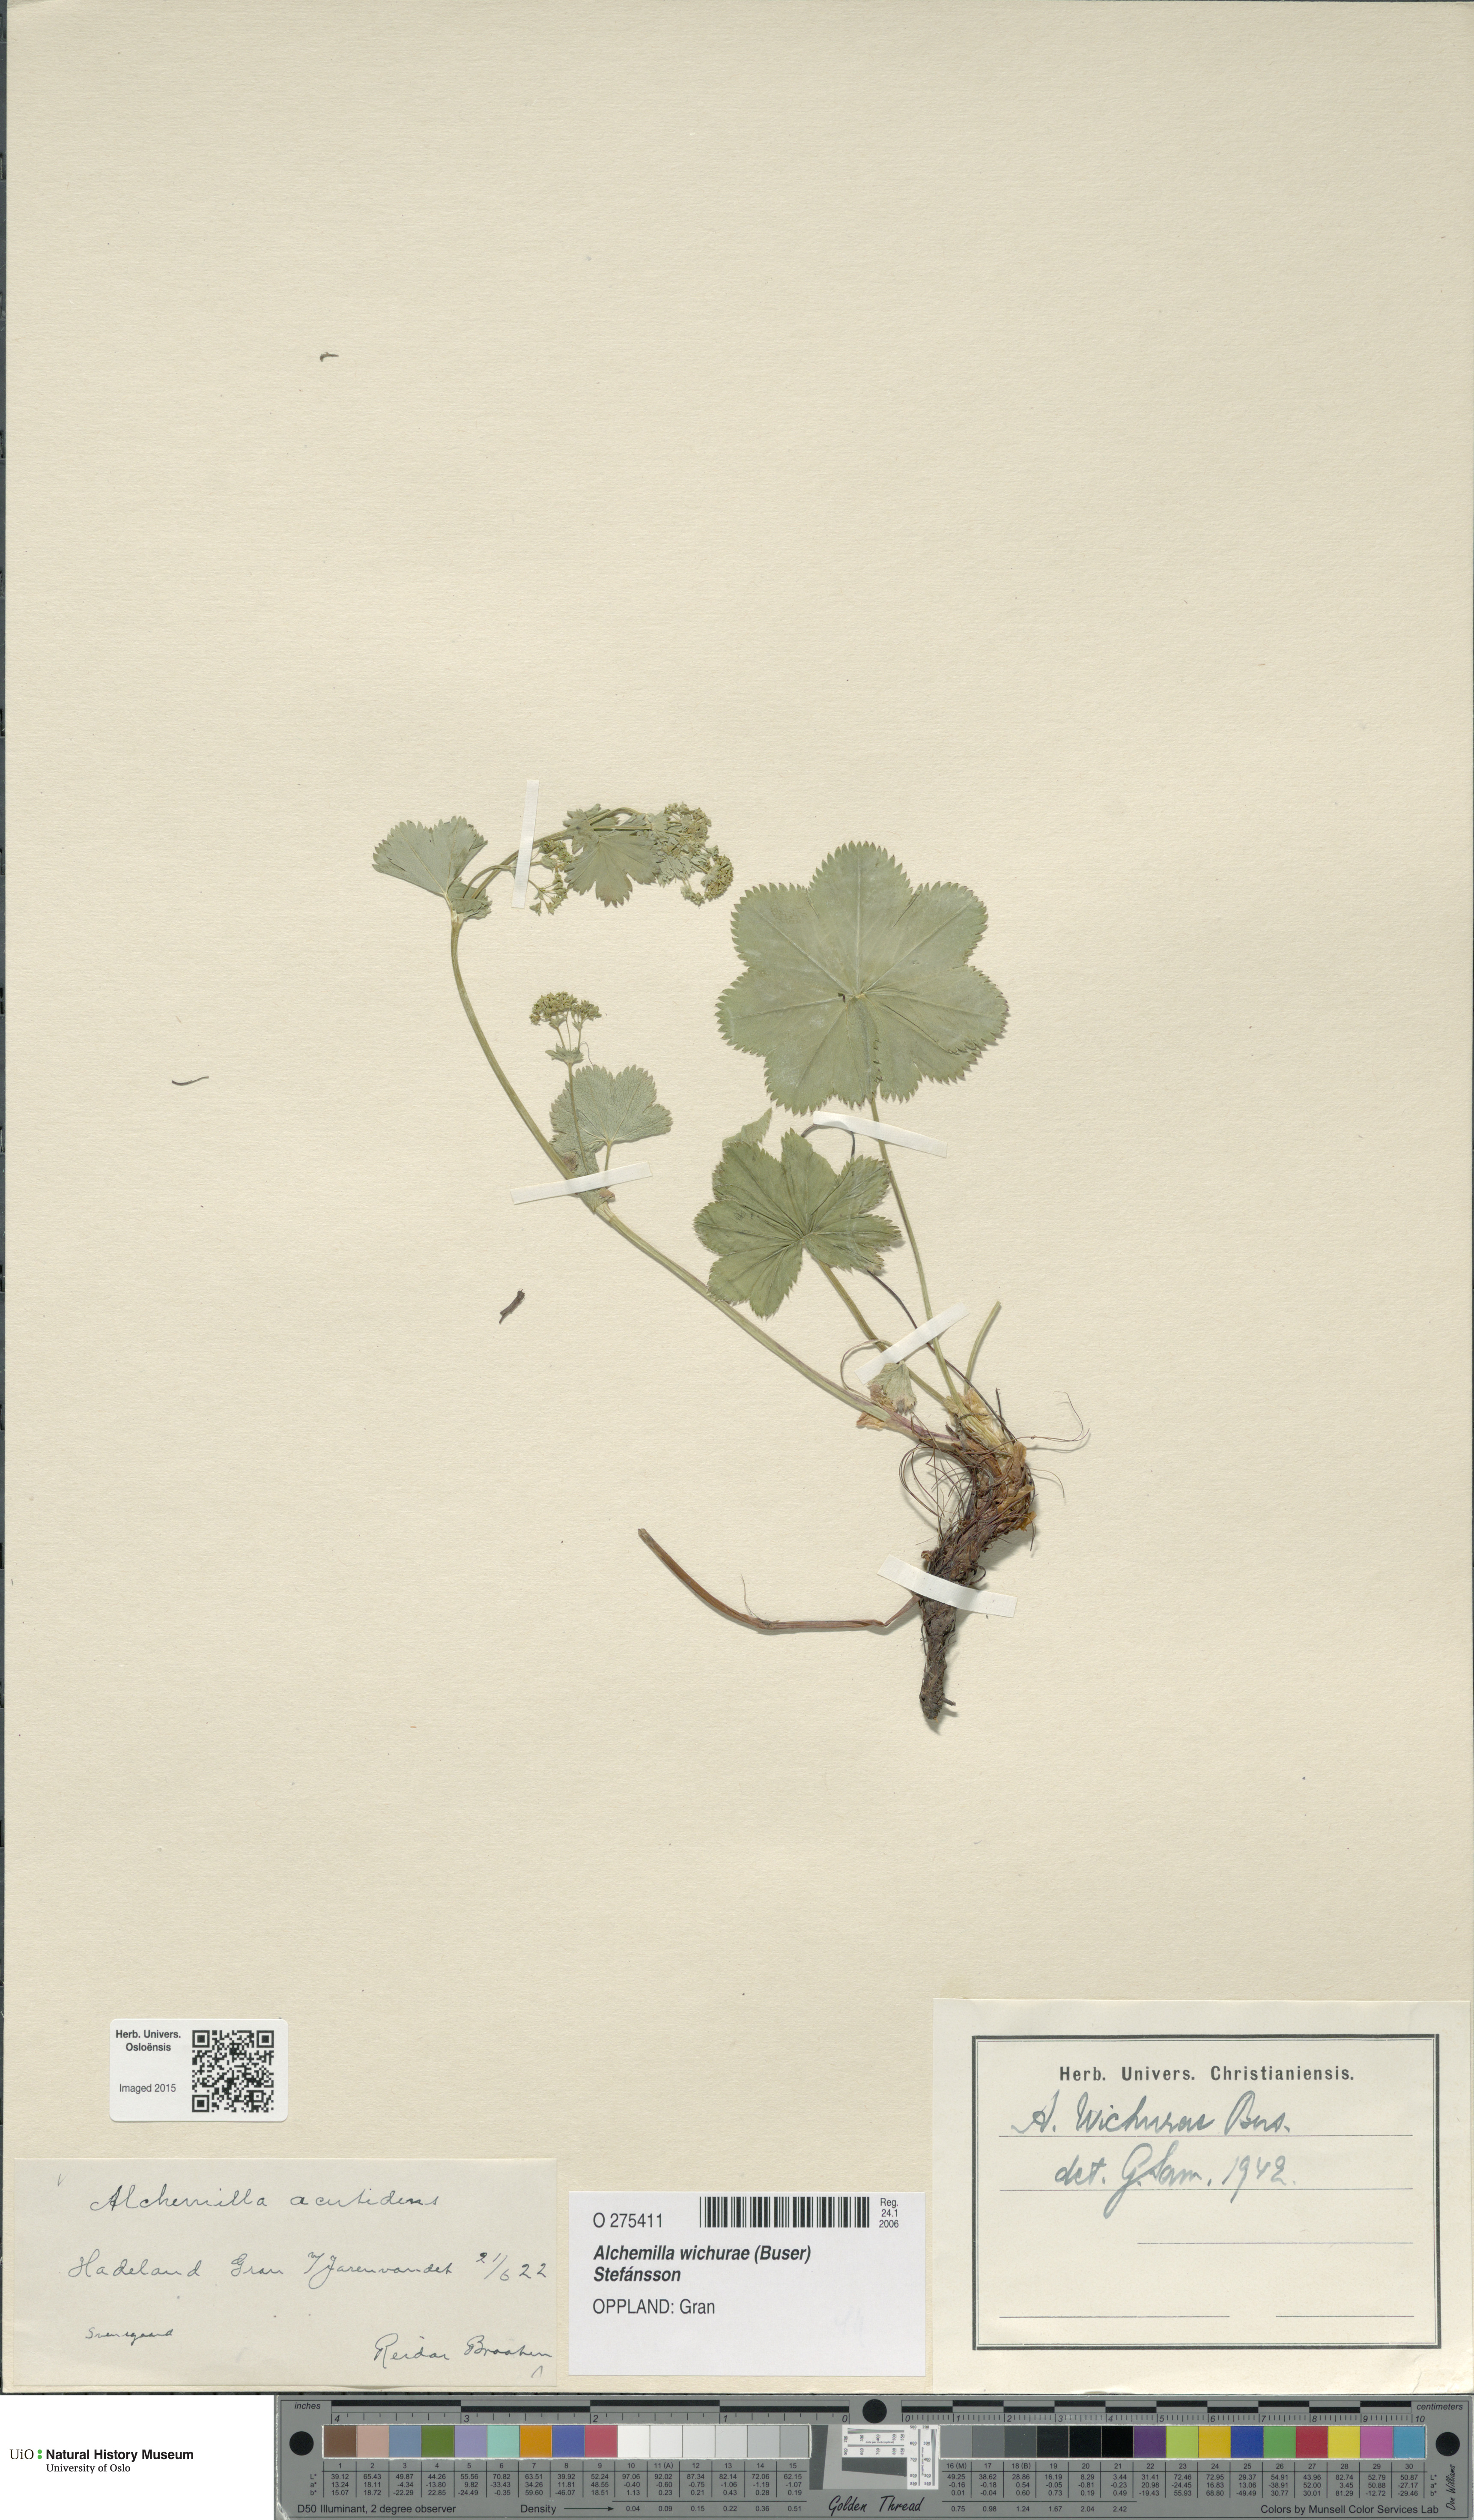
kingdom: Plantae
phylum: Tracheophyta
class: Magnoliopsida
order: Rosales
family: Rosaceae
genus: Alchemilla
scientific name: Alchemilla wichurae
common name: Rock lady's mantle
